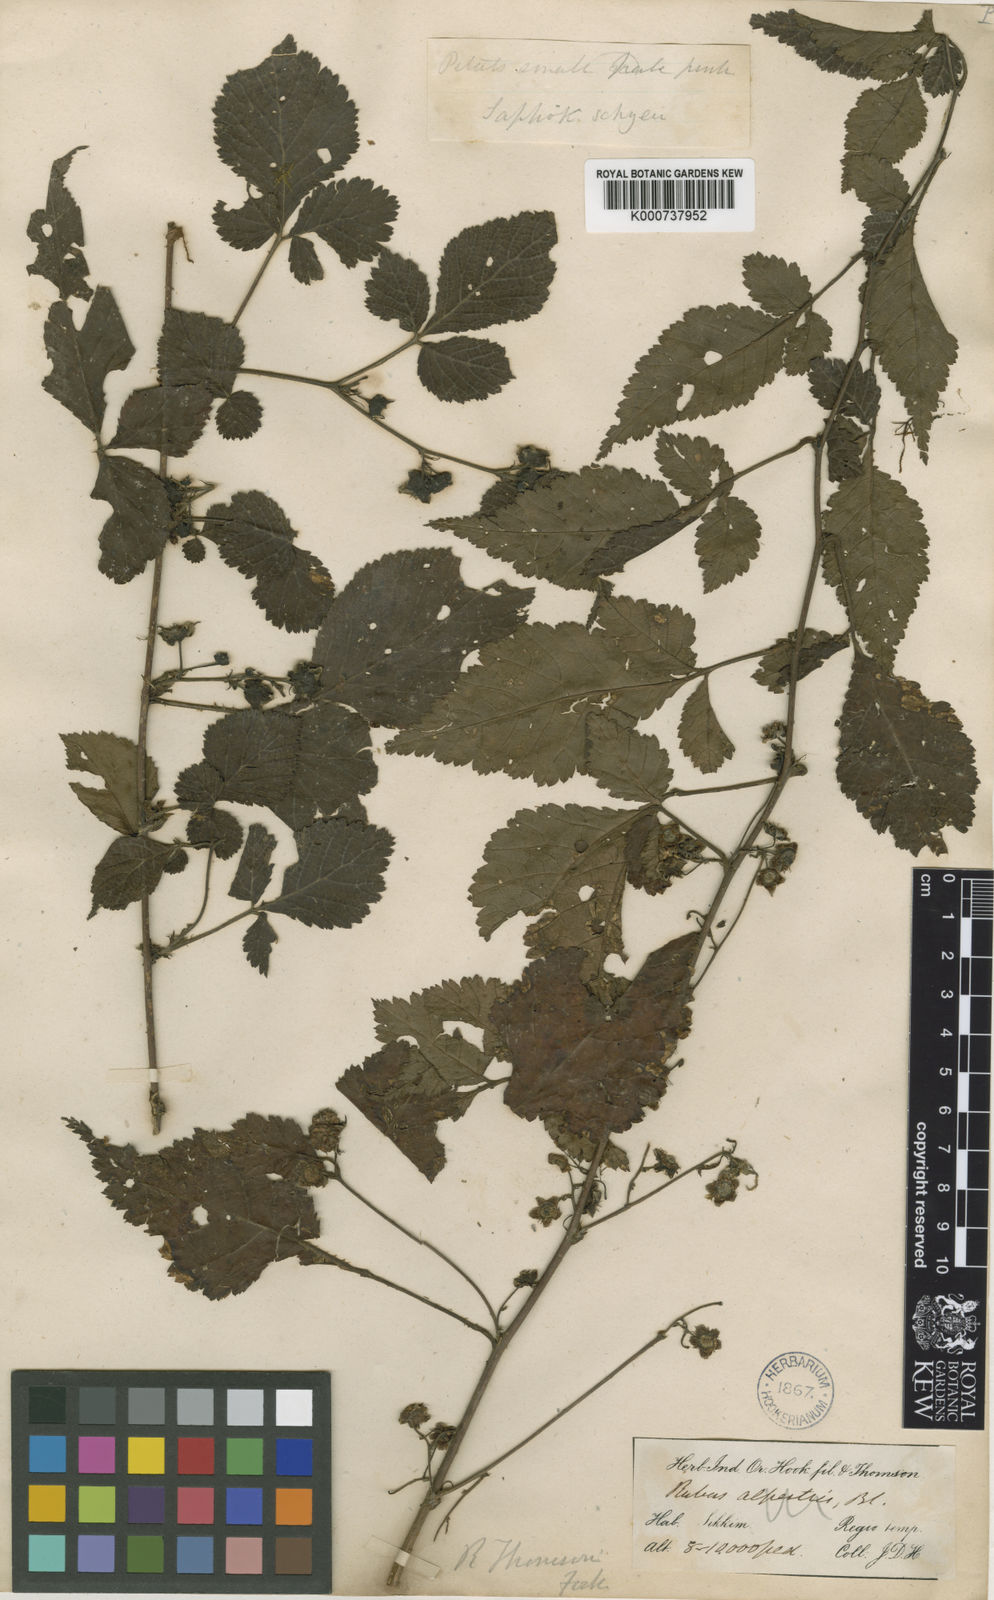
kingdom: Plantae
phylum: Tracheophyta
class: Magnoliopsida
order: Rosales
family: Rosaceae
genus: Rubus
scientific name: Rubus thomsonii
